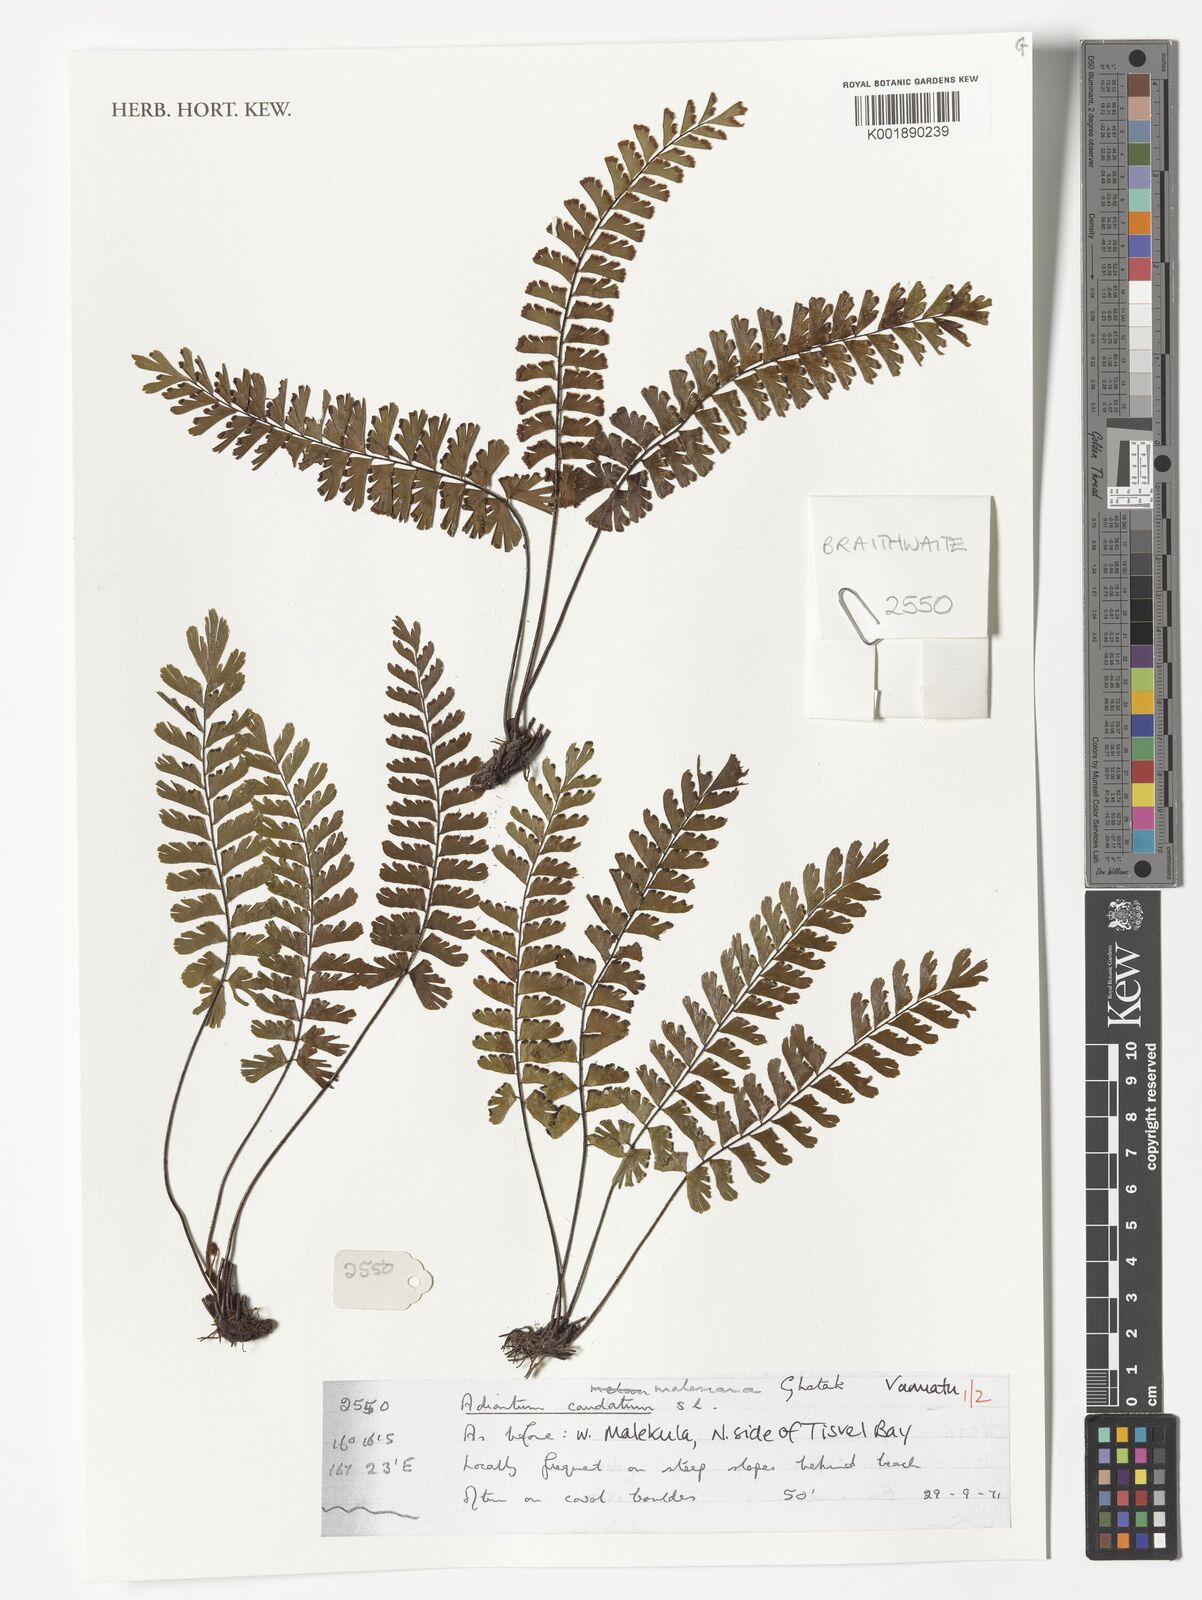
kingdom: Plantae
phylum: Tracheophyta
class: Polypodiopsida
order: Polypodiales
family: Pteridaceae
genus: Adiantum
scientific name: Adiantum caudatum
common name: Tailed maidenhair
